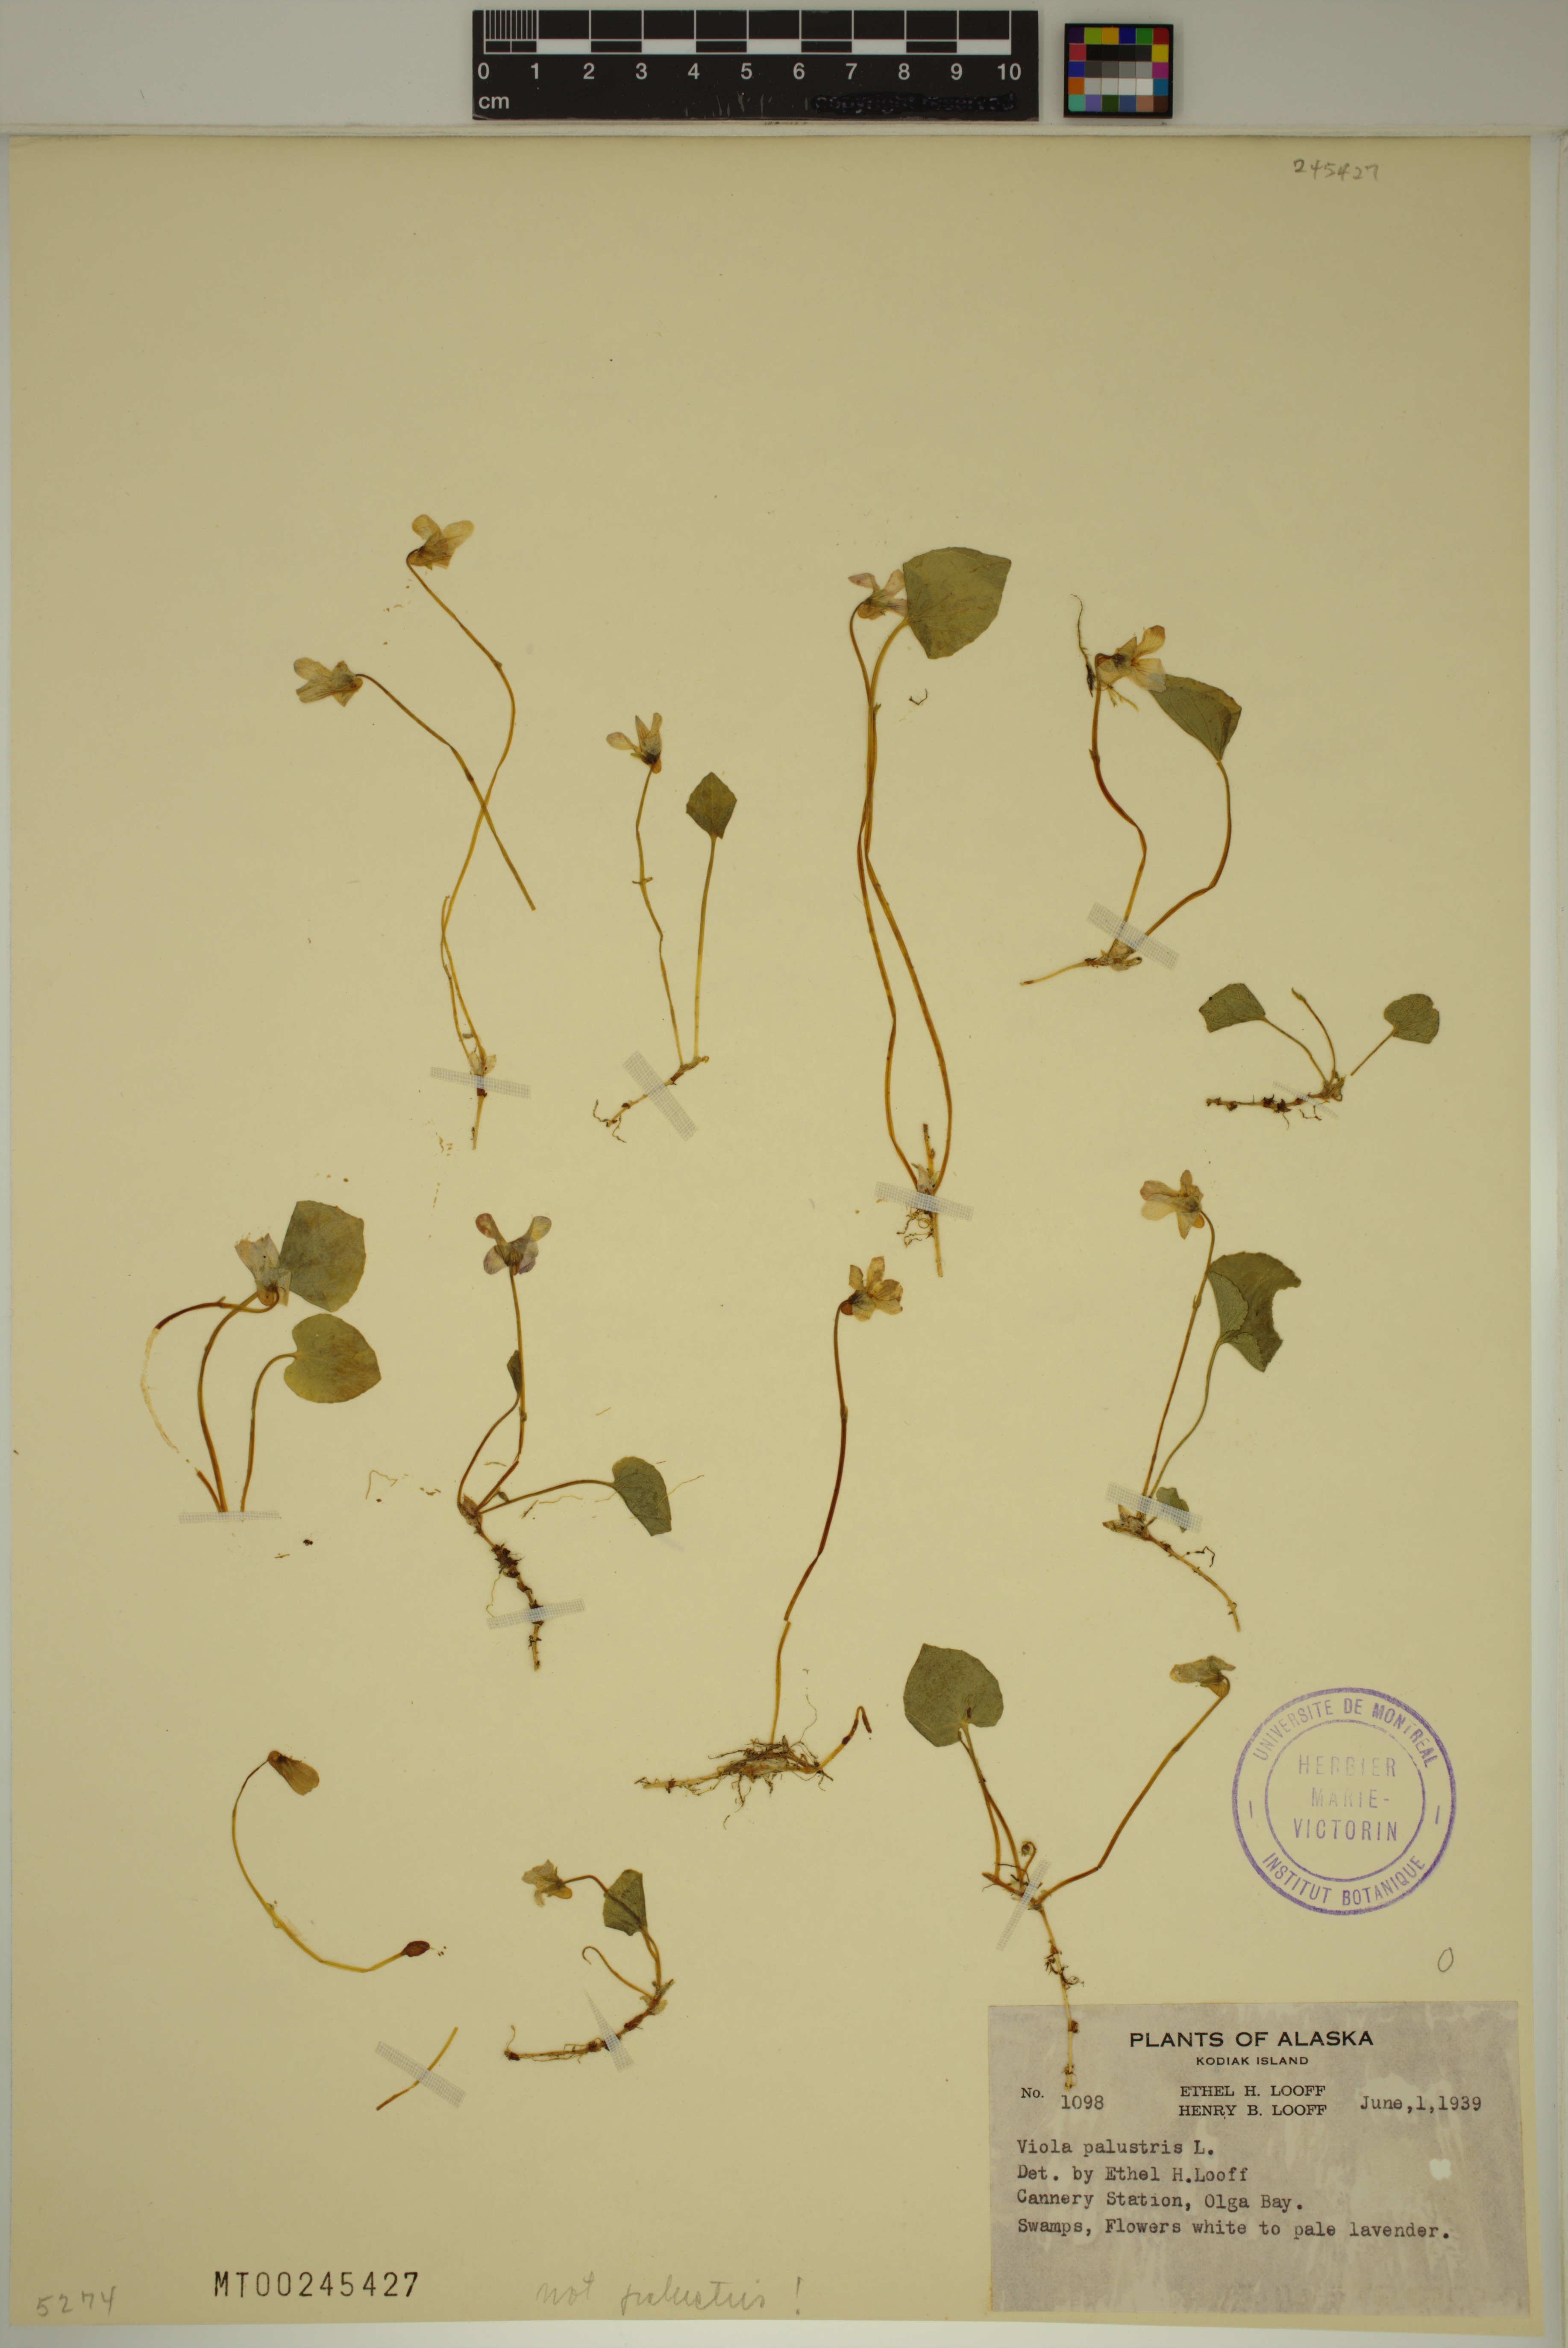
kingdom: Plantae
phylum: Tracheophyta
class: Magnoliopsida
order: Malpighiales
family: Violaceae
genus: Viola
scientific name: Viola palustris
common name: Marsh violet
